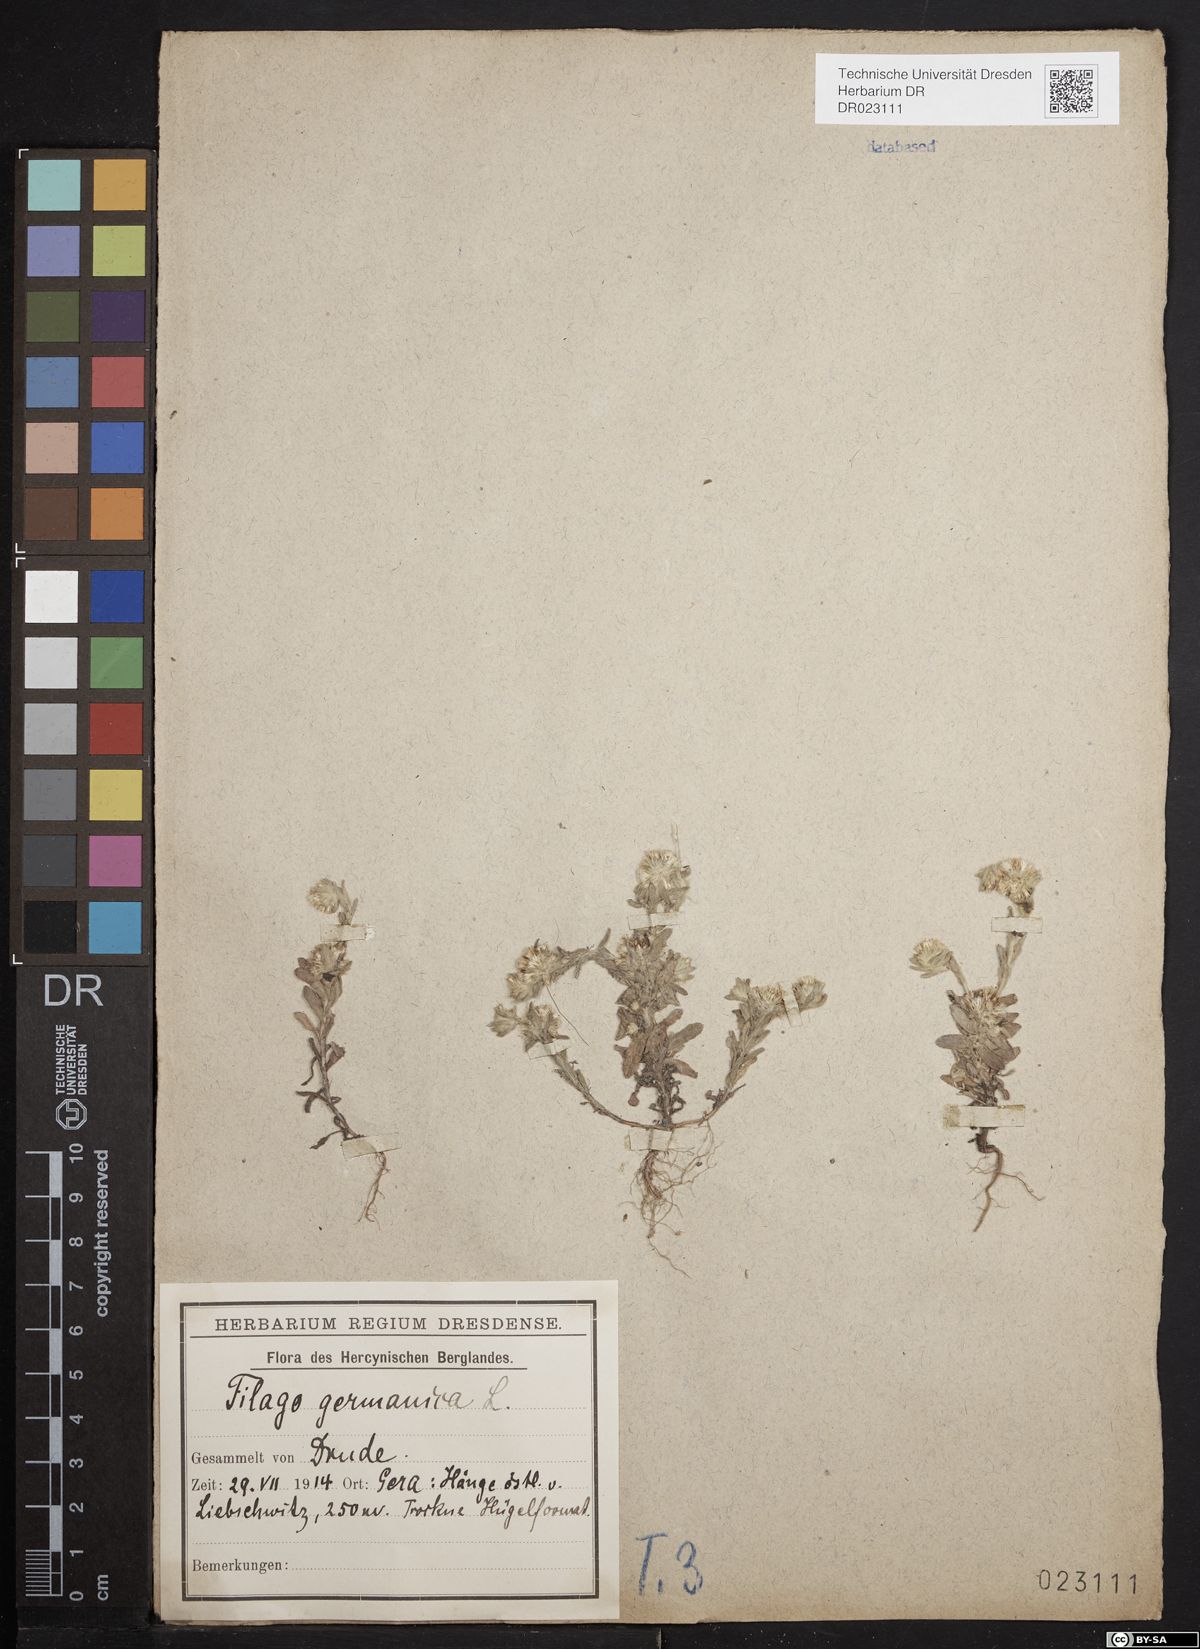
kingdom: Plantae
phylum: Tracheophyta
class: Magnoliopsida
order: Asterales
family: Asteraceae
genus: Filago
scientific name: Filago germanica
